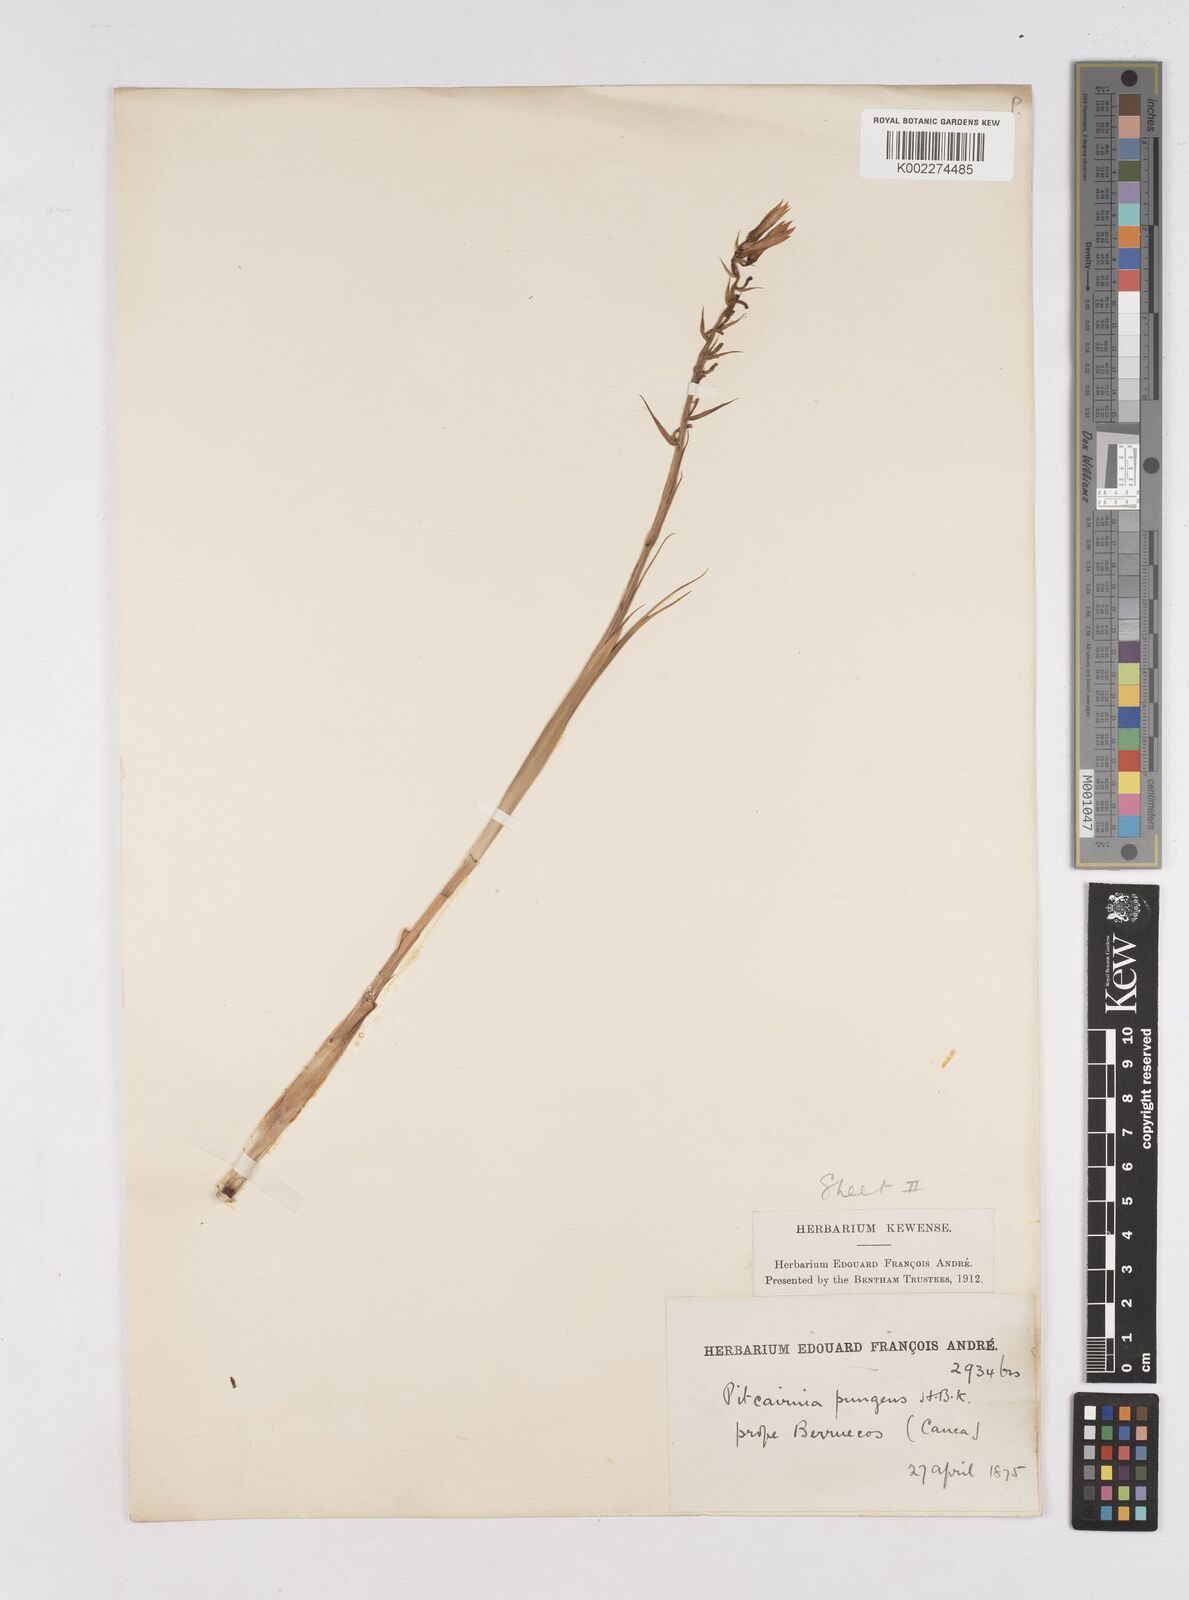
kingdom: Plantae
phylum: Tracheophyta
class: Liliopsida
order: Poales
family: Bromeliaceae
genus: Pitcairnia
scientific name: Pitcairnia pungens
